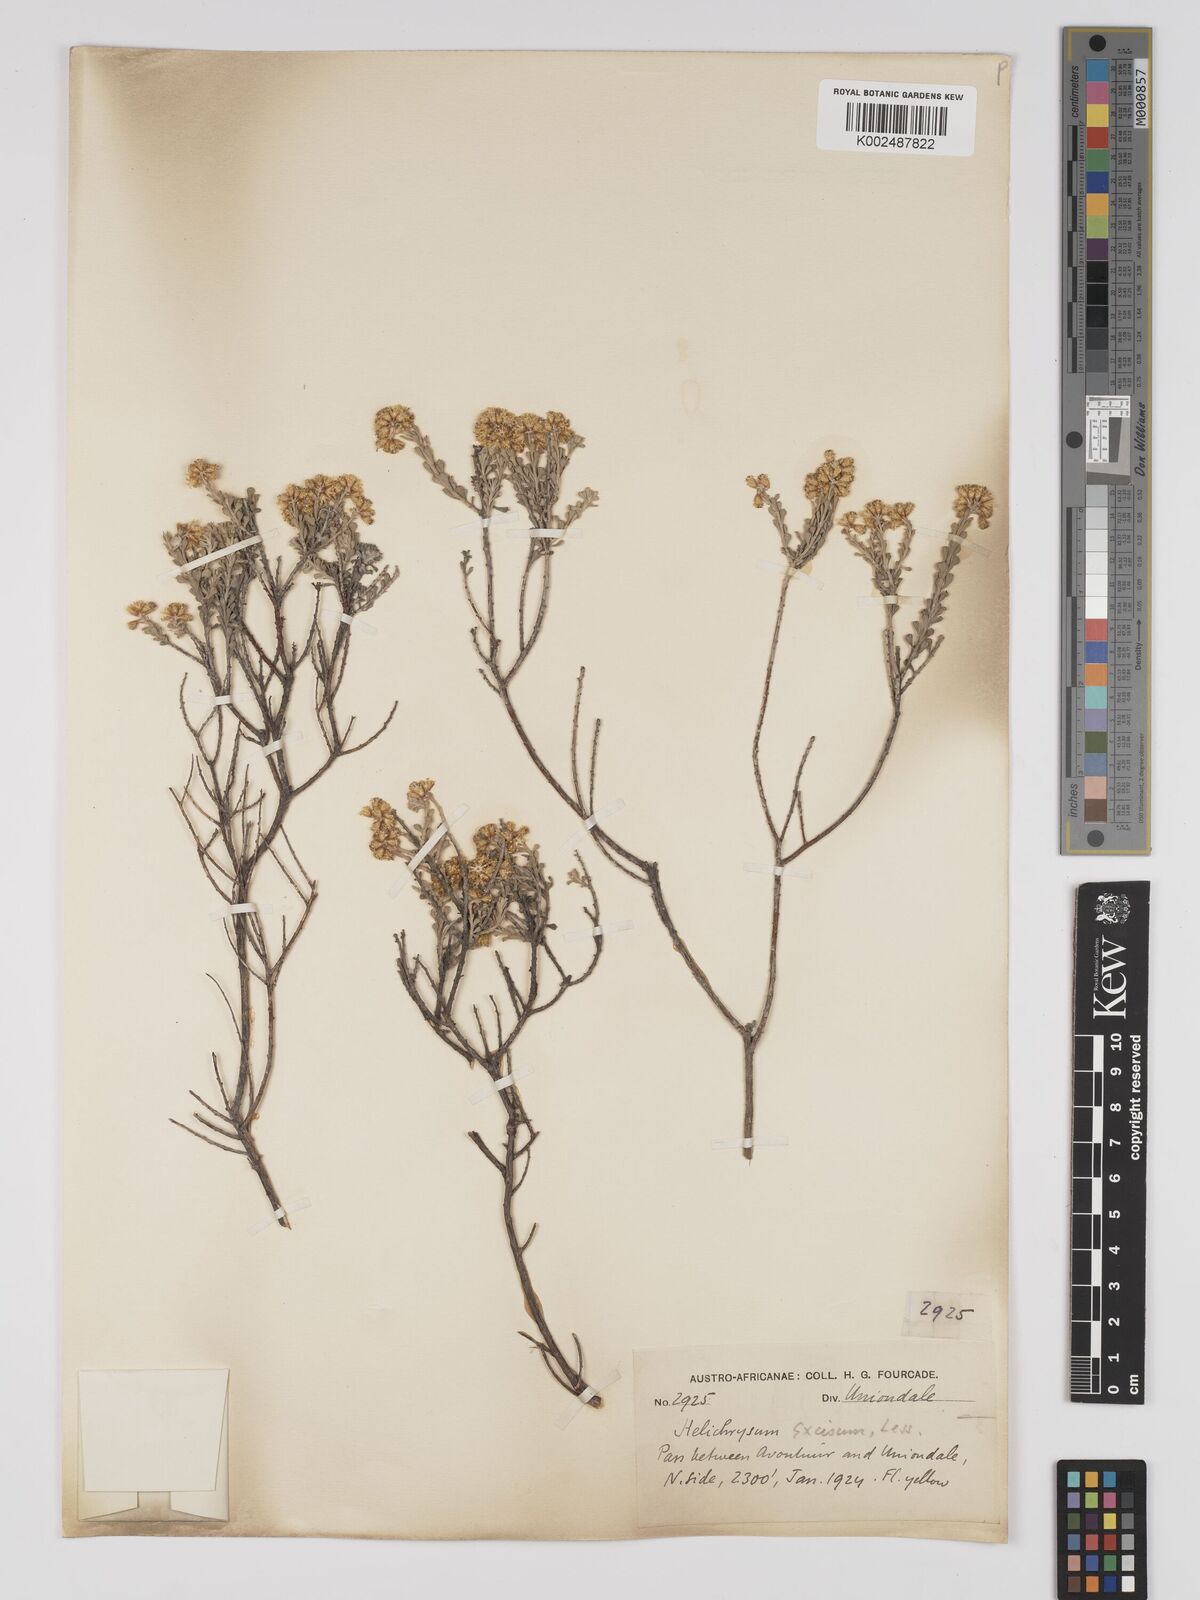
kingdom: Plantae
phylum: Tracheophyta
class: Magnoliopsida
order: Asterales
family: Asteraceae
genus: Helichrysum
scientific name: Helichrysum excisum
